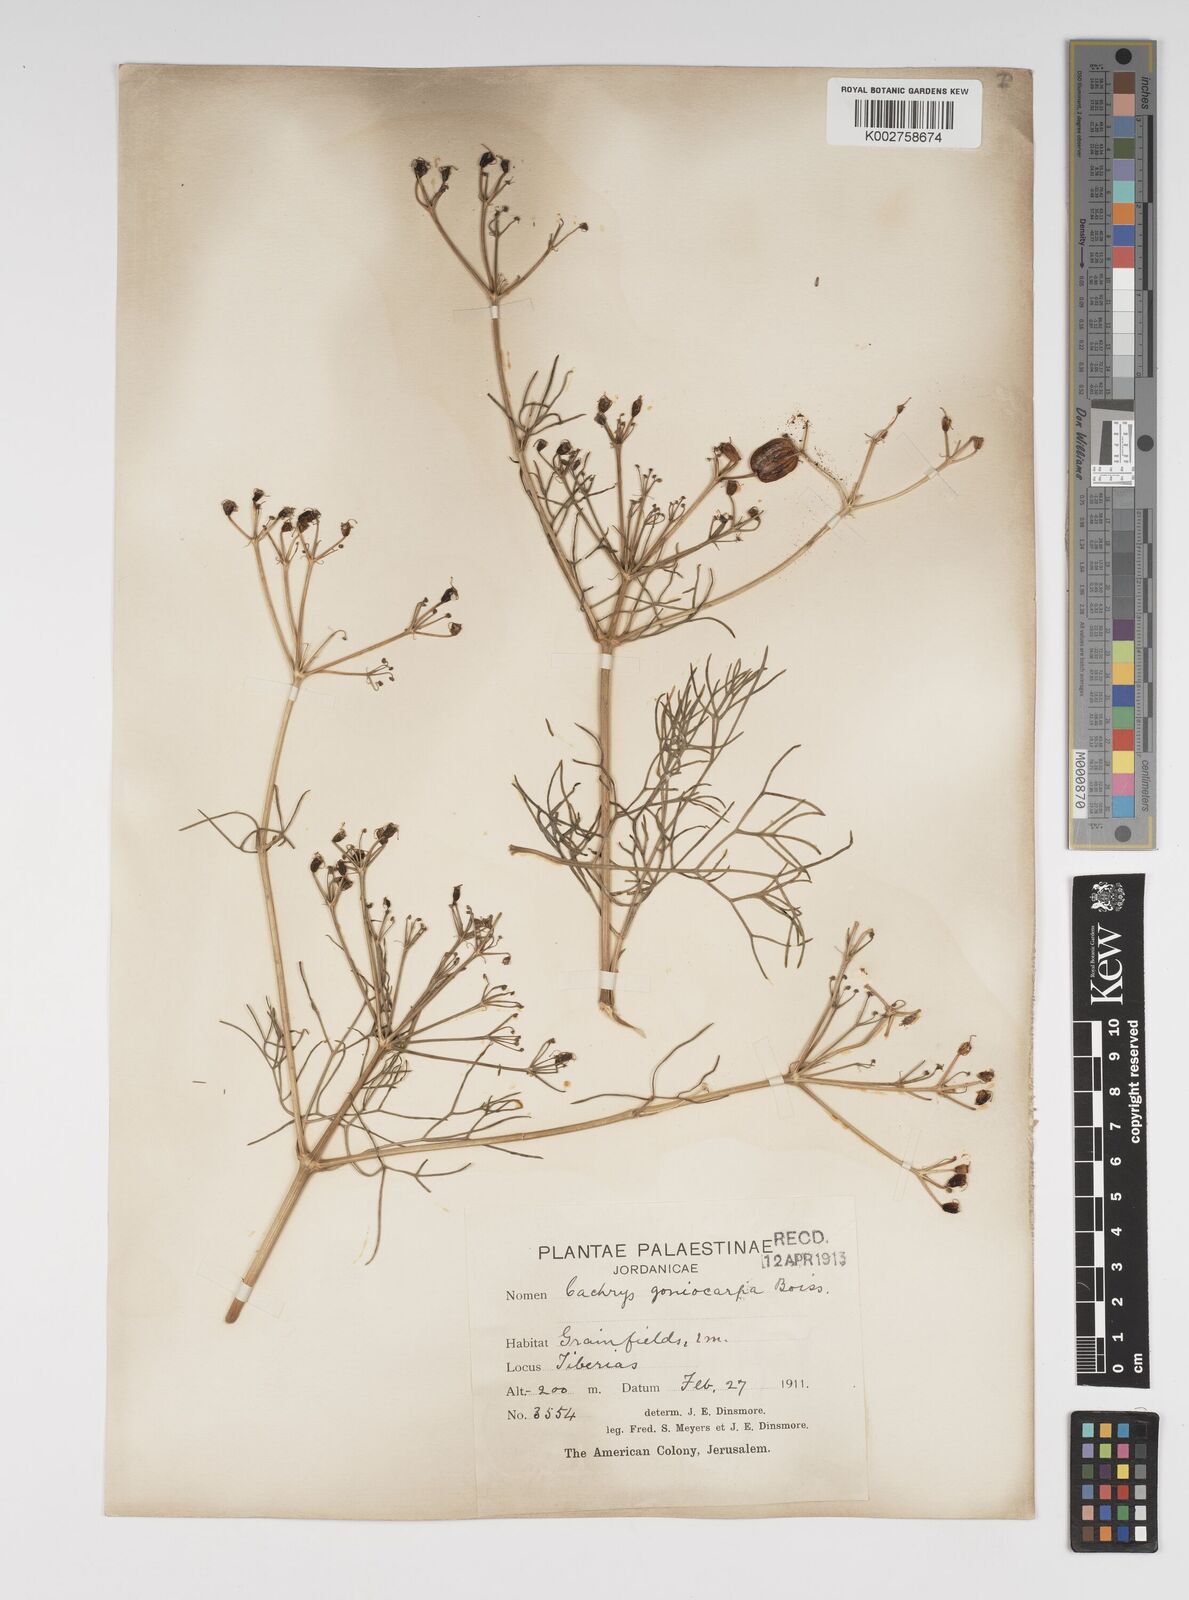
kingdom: Plantae
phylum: Tracheophyta
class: Magnoliopsida
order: Apiales
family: Apiaceae
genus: Prangos
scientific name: Prangos ferulacea
